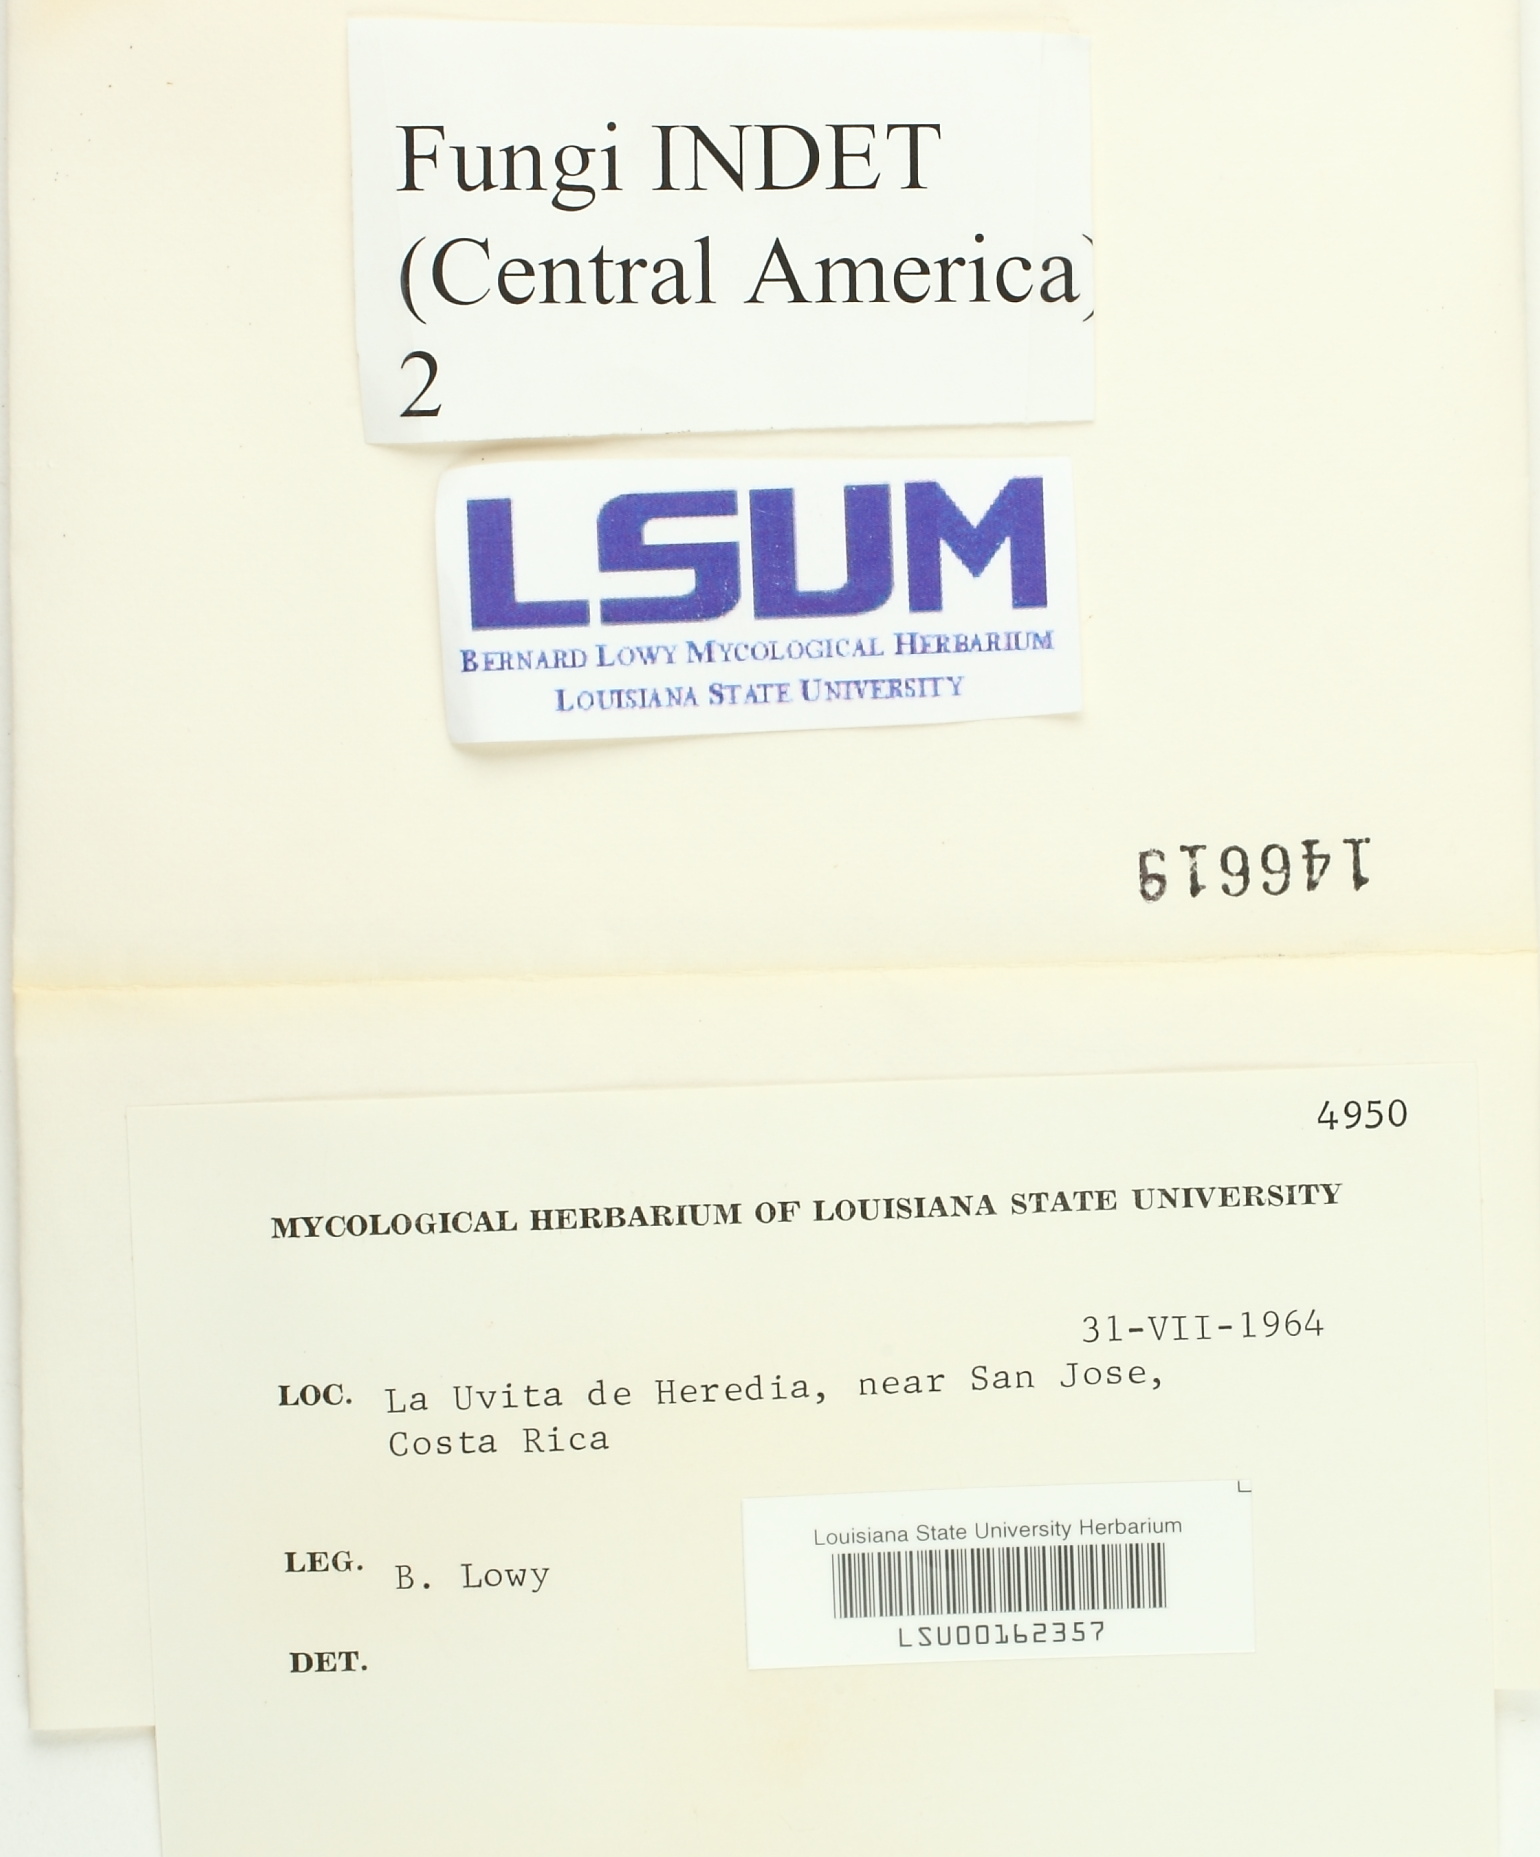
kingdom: Fungi
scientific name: Fungi
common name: Fungi
